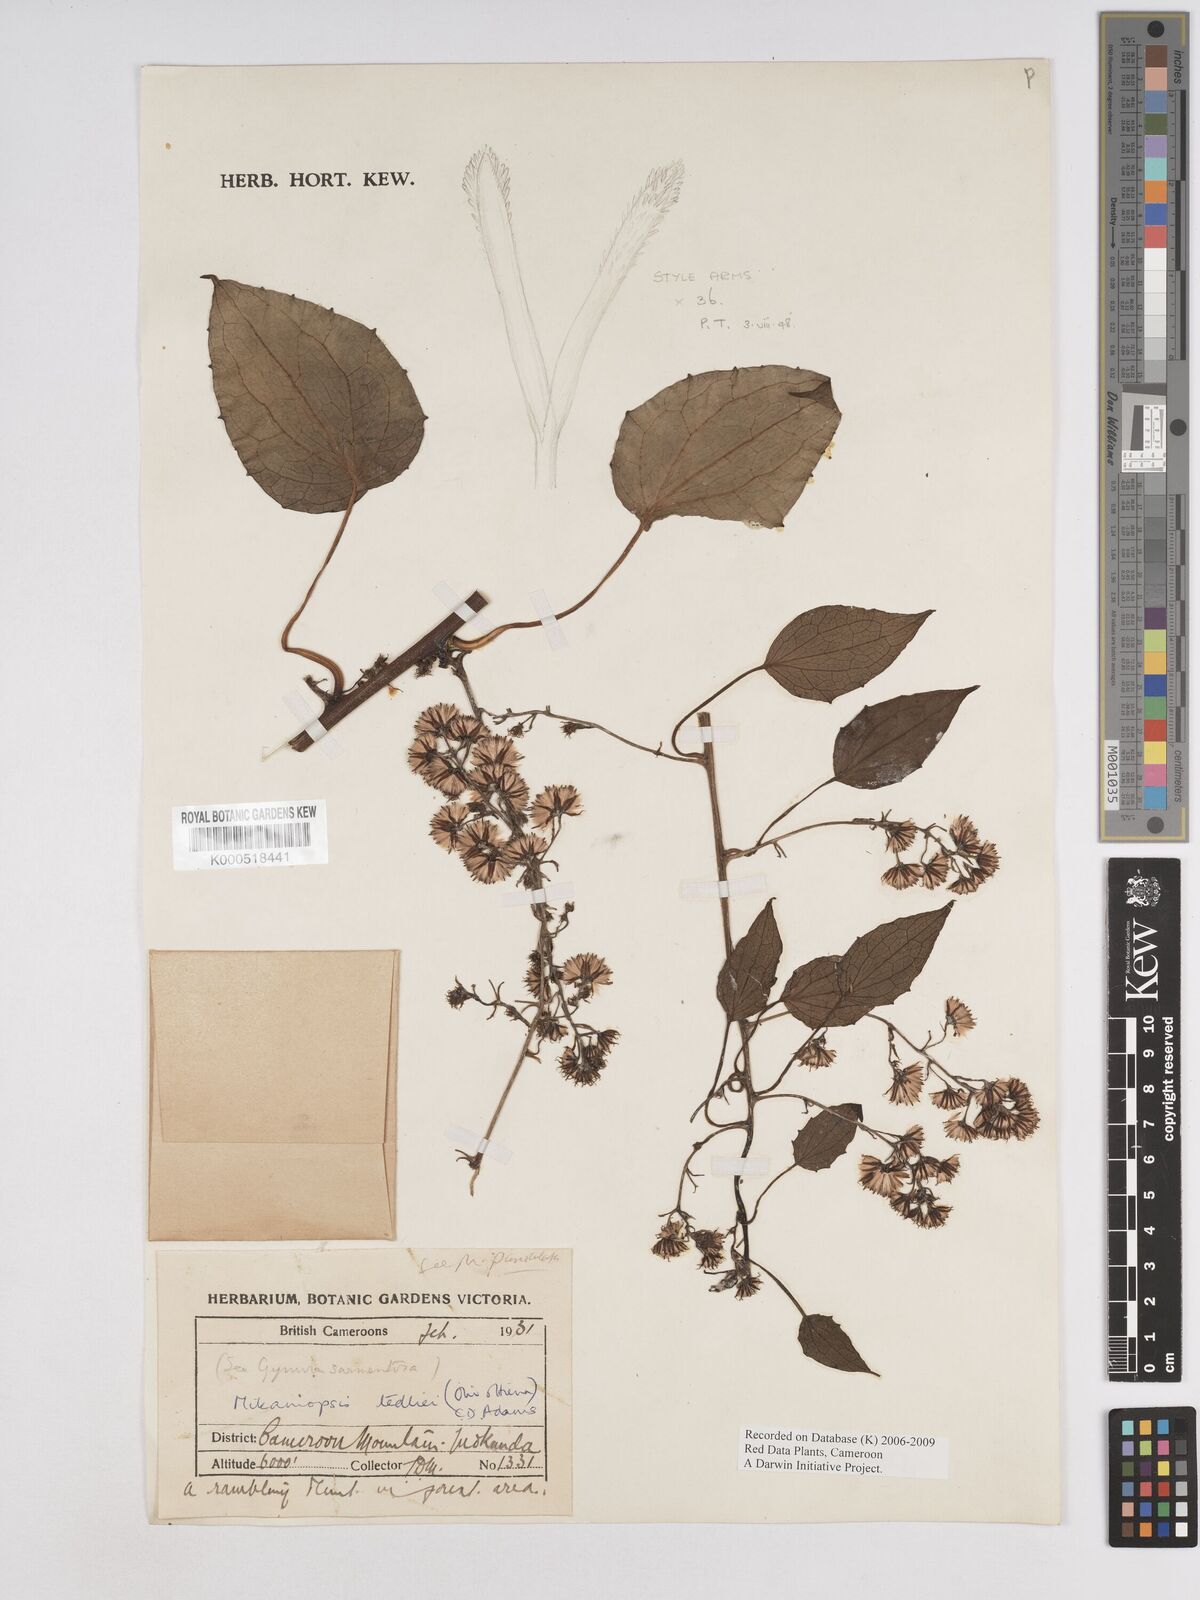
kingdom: Plantae
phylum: Tracheophyta
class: Magnoliopsida
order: Asterales
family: Asteraceae
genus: Mikaniopsis
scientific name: Mikaniopsis tedliei
